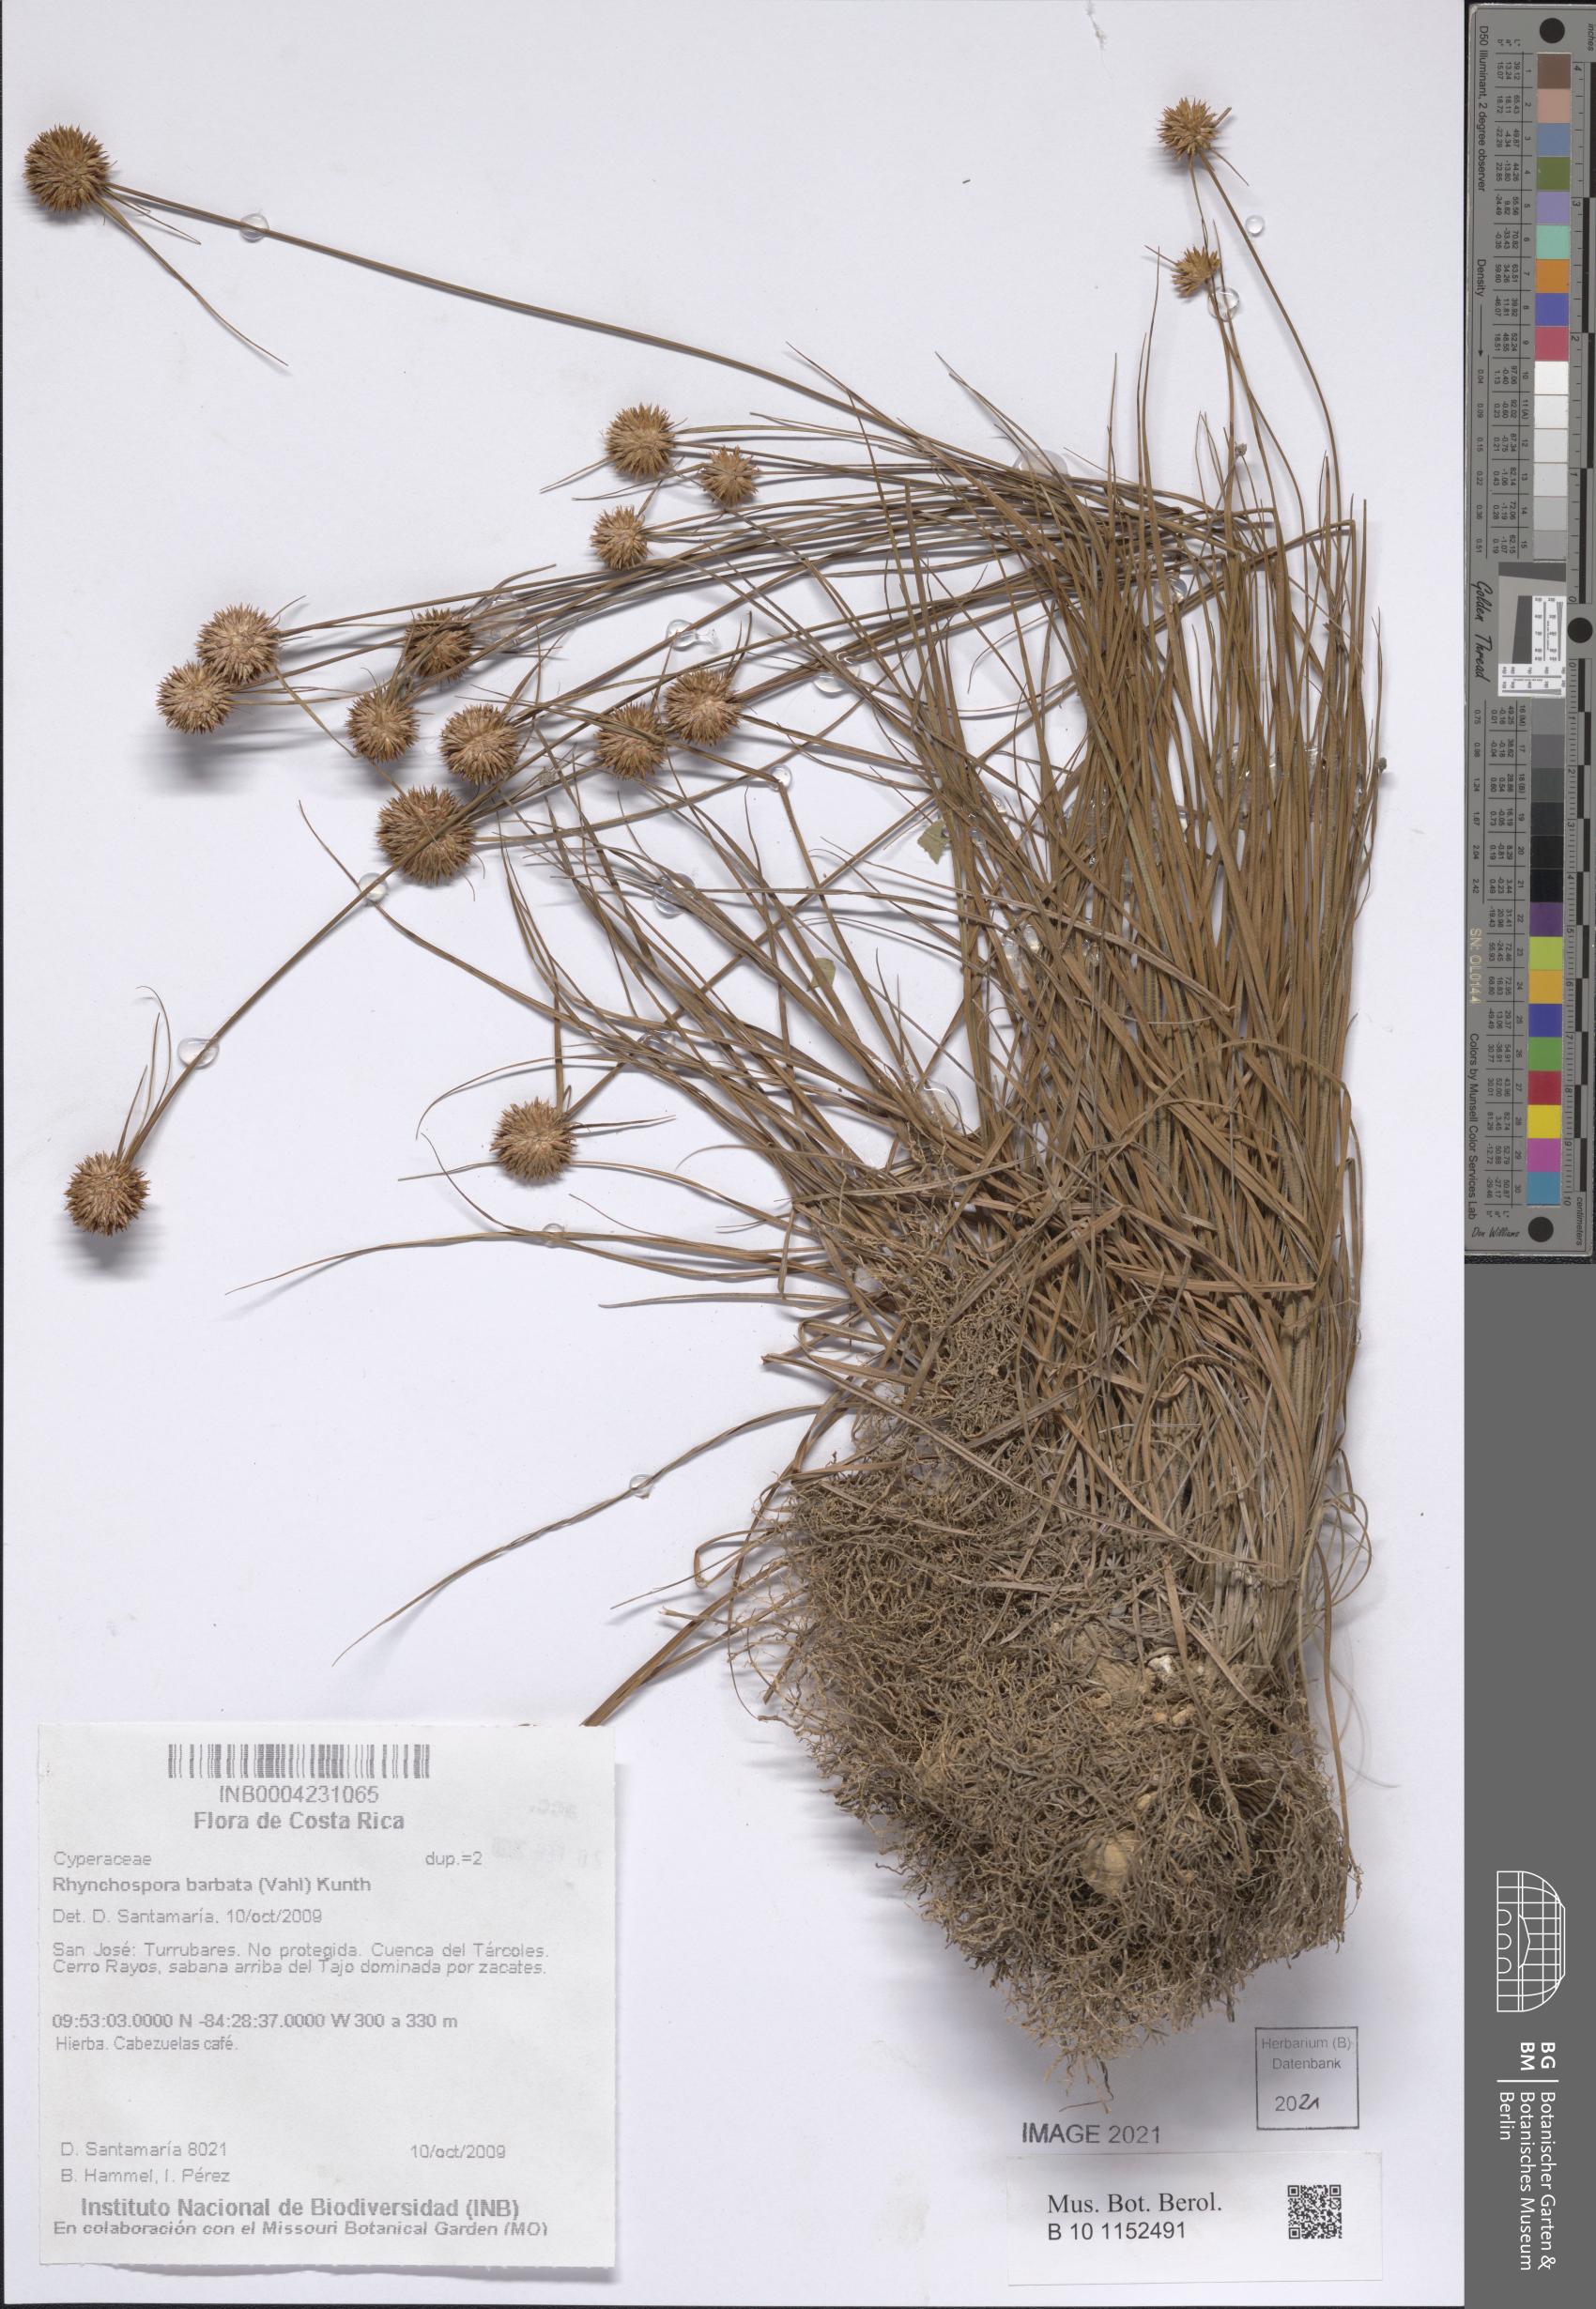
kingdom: Plantae
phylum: Tracheophyta
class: Liliopsida
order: Poales
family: Cyperaceae
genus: Rhynchospora
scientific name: Rhynchospora barbata
